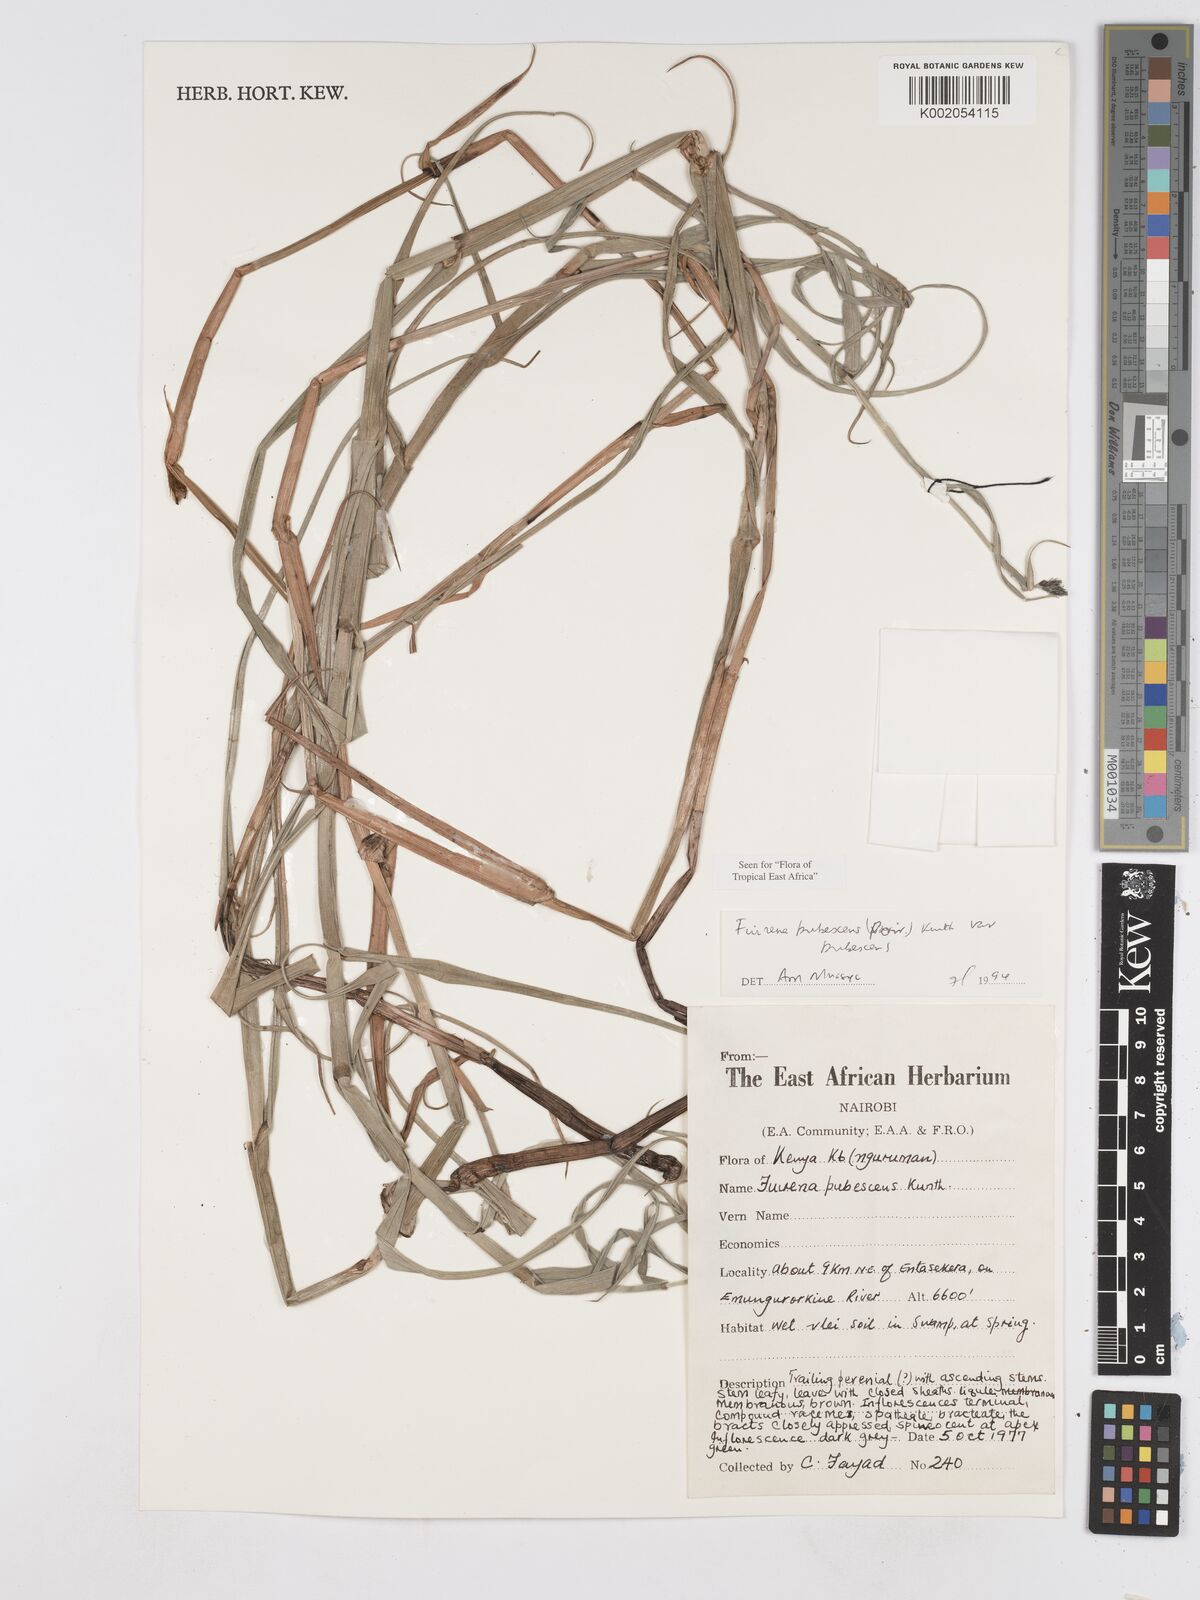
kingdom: Plantae
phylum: Tracheophyta
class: Liliopsida
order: Poales
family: Cyperaceae
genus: Fuirena
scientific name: Fuirena pubescens
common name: Hairy sedge
